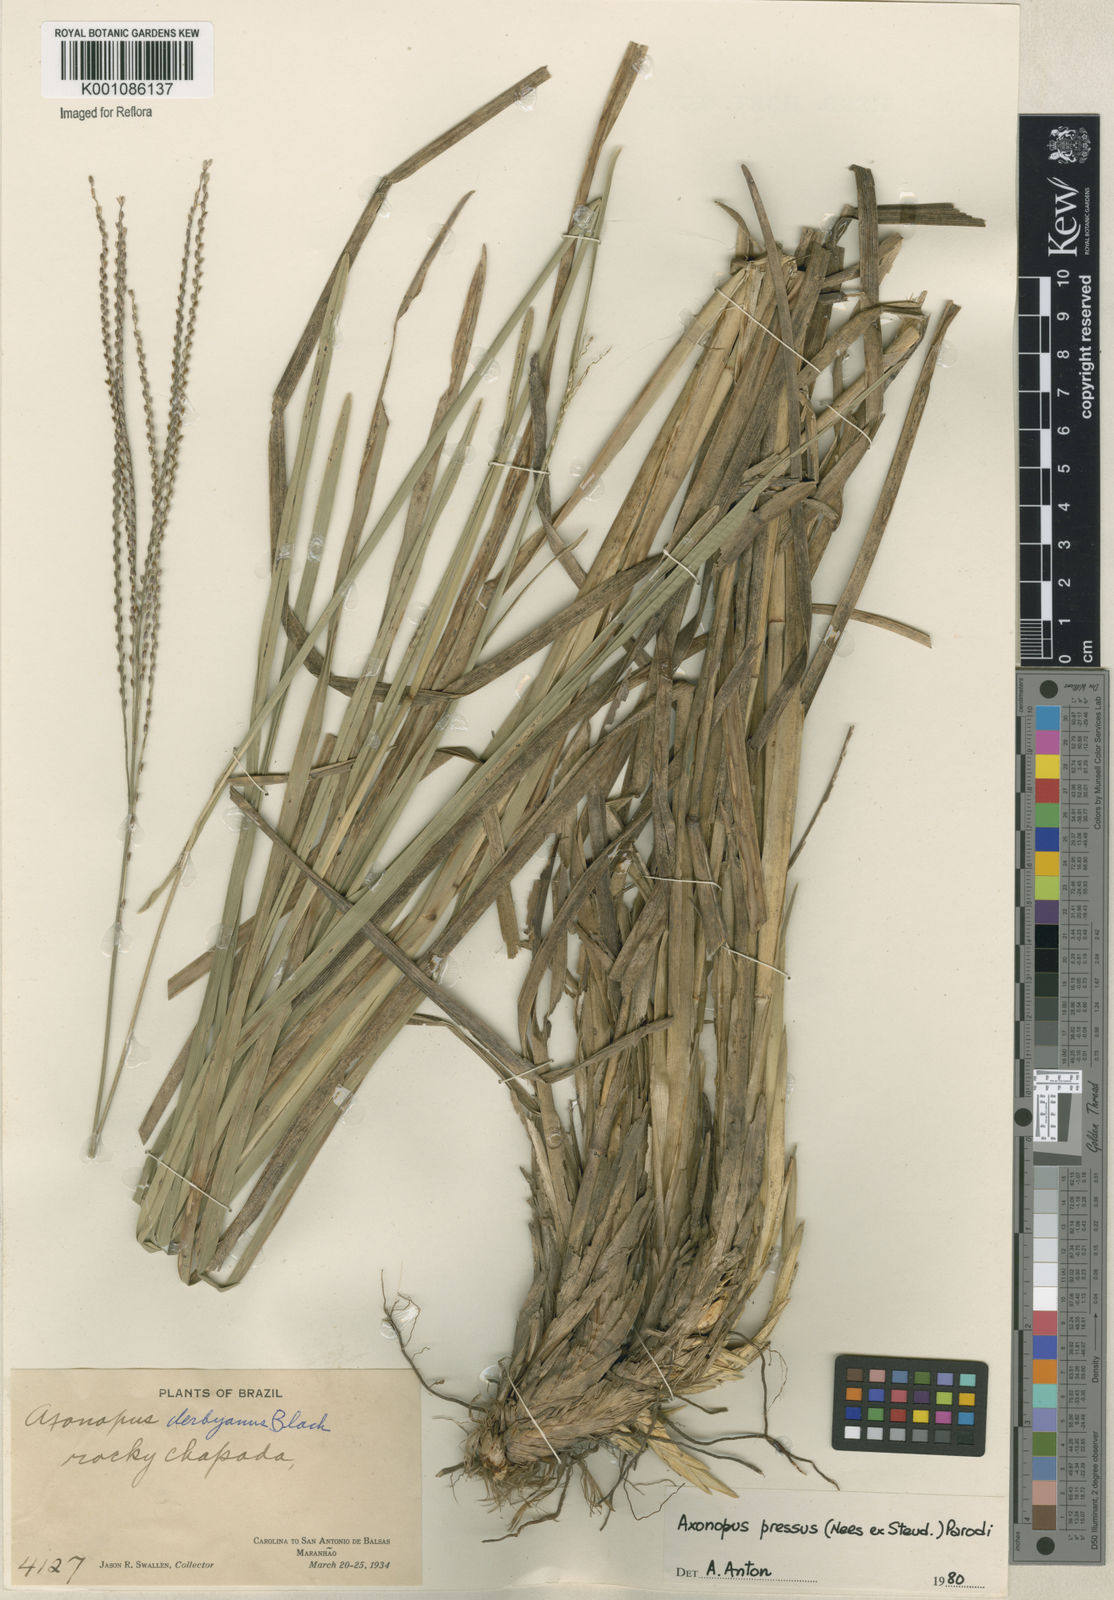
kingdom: Plantae
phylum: Tracheophyta
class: Liliopsida
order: Poales
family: Poaceae
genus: Axonopus
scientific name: Axonopus pressus
